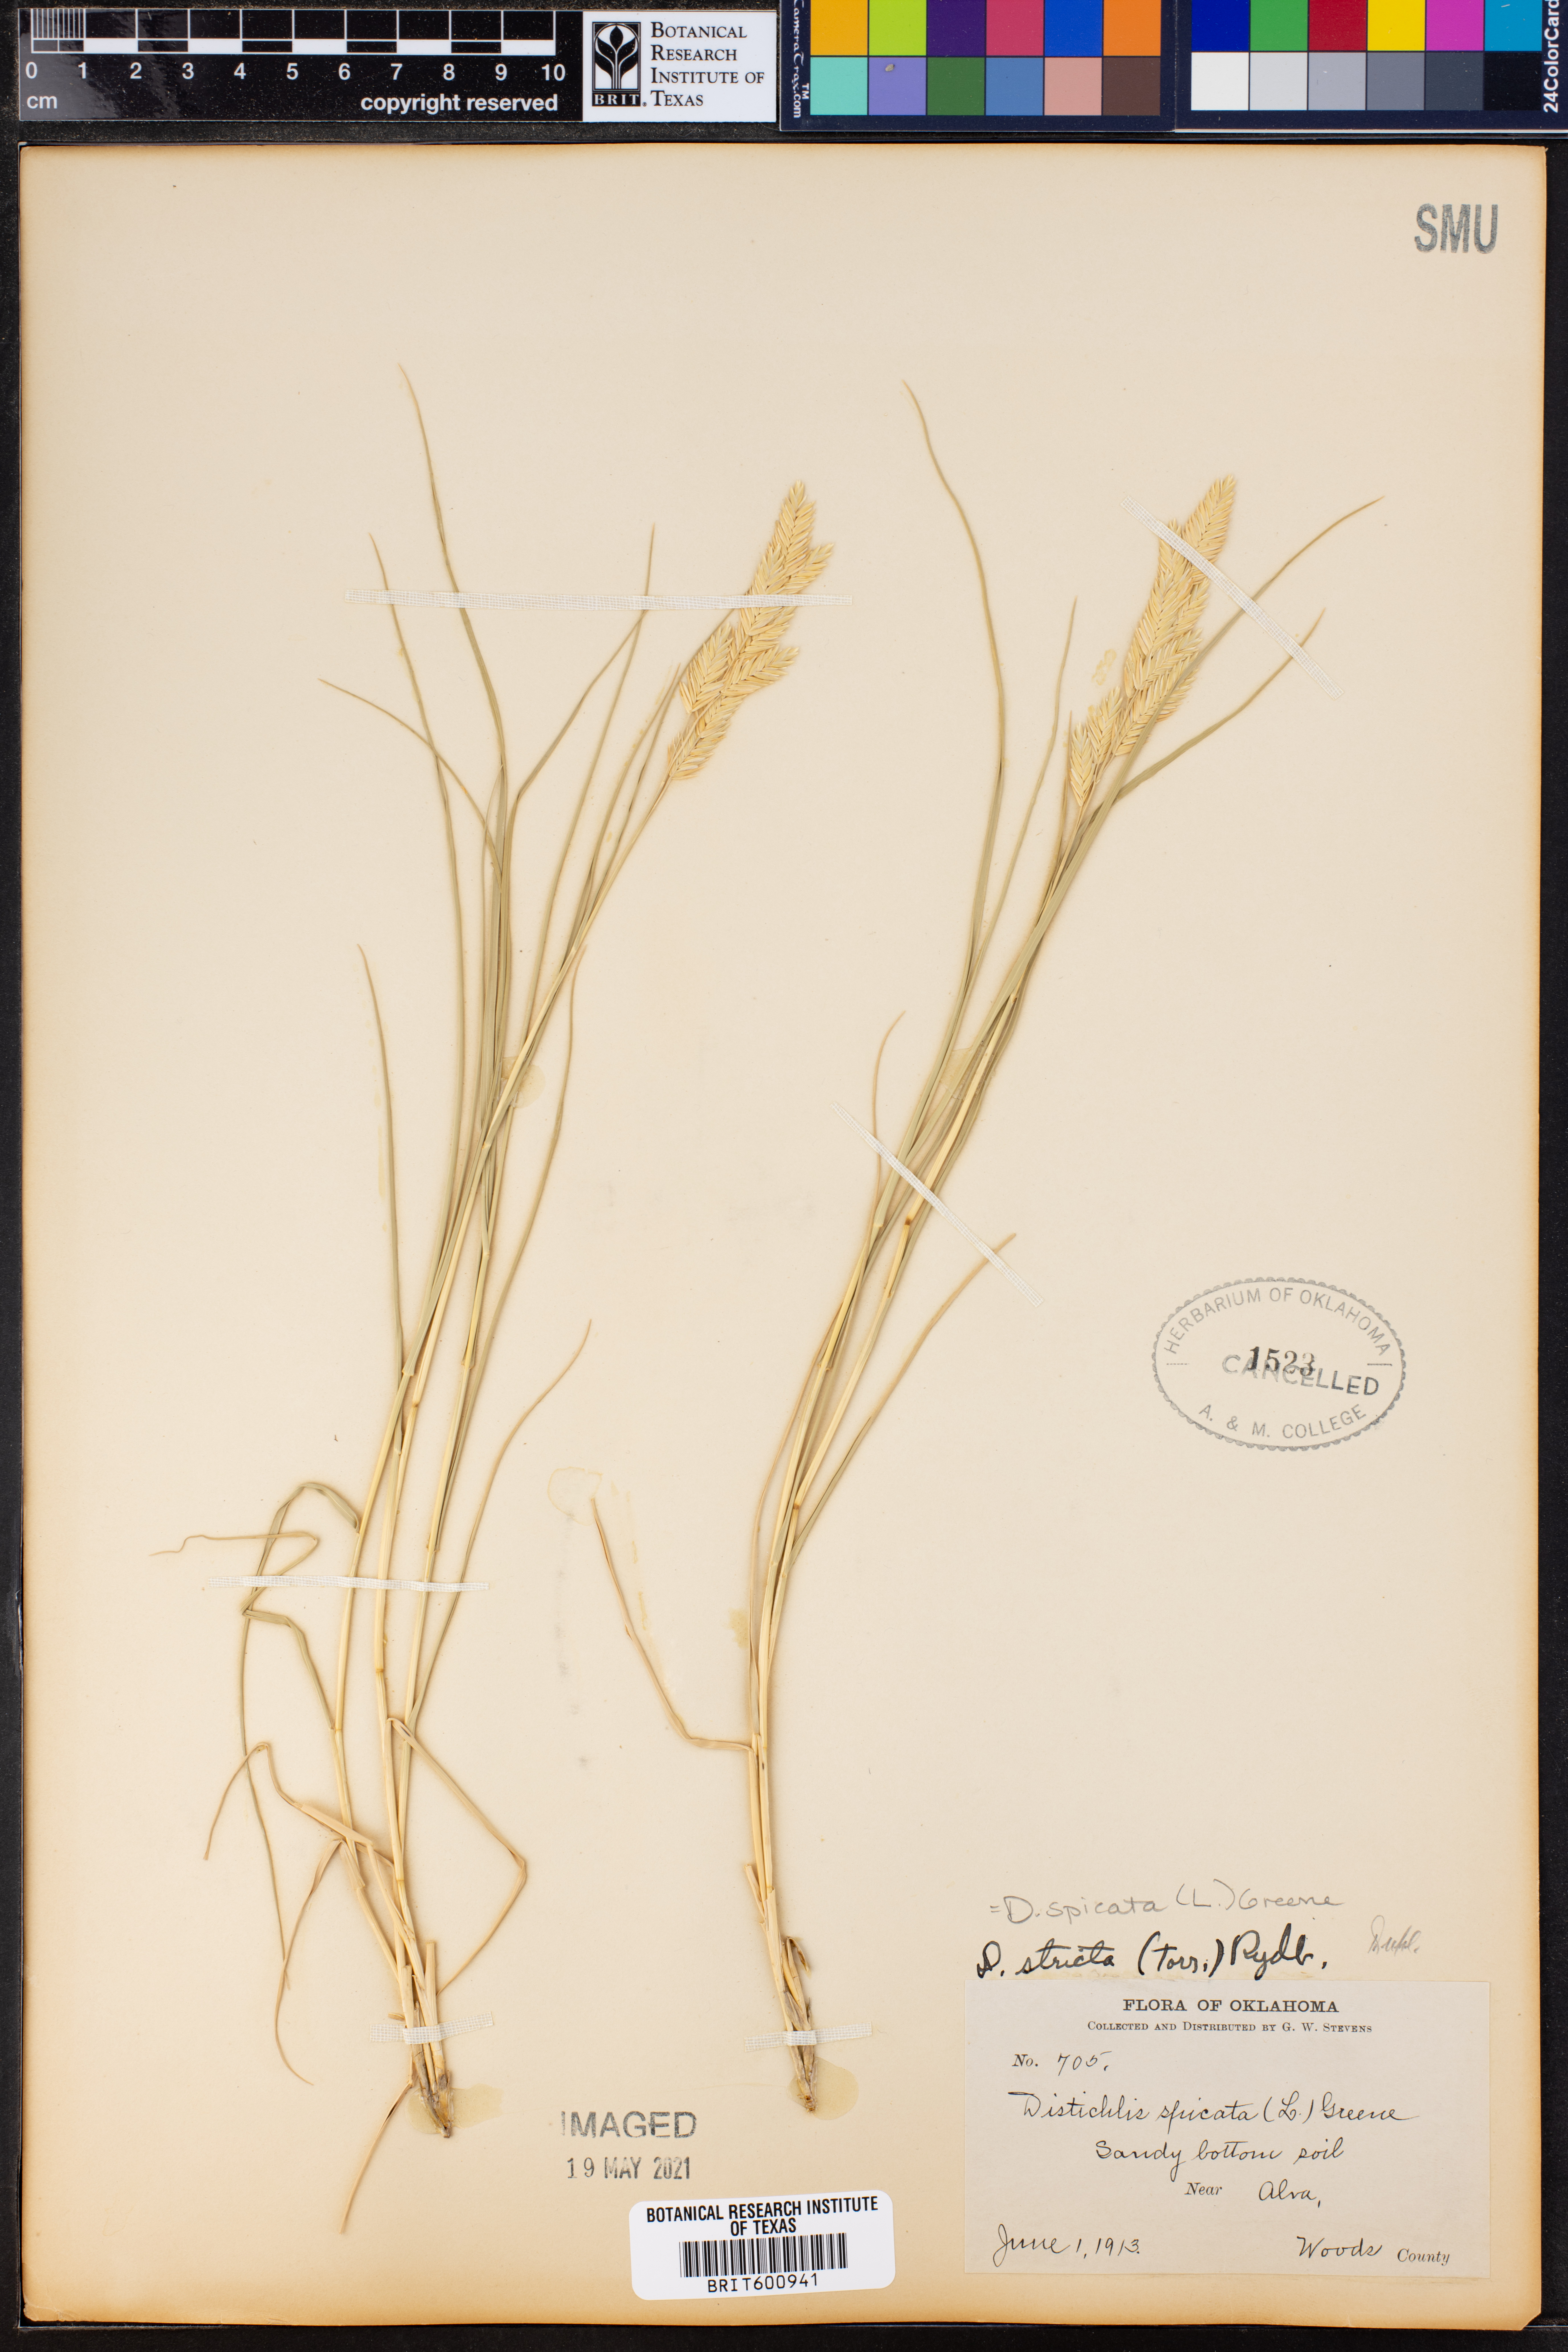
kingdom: Plantae
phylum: Tracheophyta
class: Liliopsida
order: Poales
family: Poaceae
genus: Distichlis
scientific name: Distichlis spicata
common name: Saltgrass
